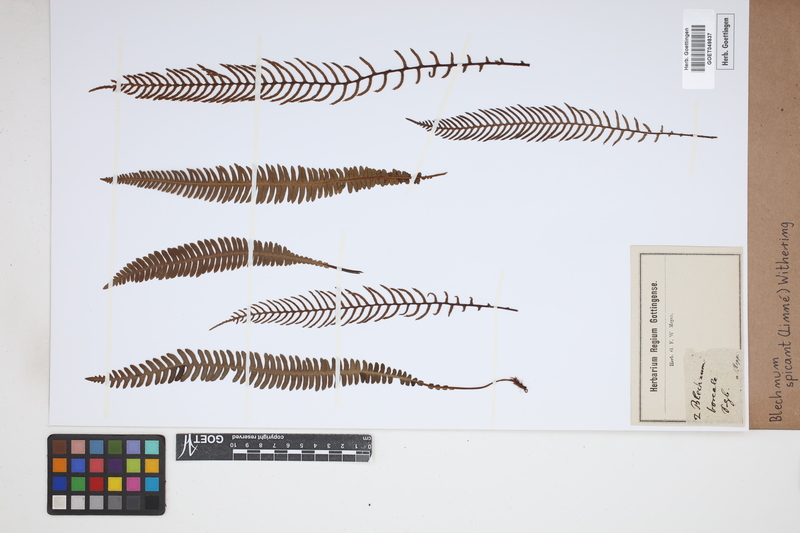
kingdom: Plantae
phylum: Tracheophyta
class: Polypodiopsida
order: Polypodiales
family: Blechnaceae
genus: Struthiopteris
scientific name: Struthiopteris spicant
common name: Deer fern
